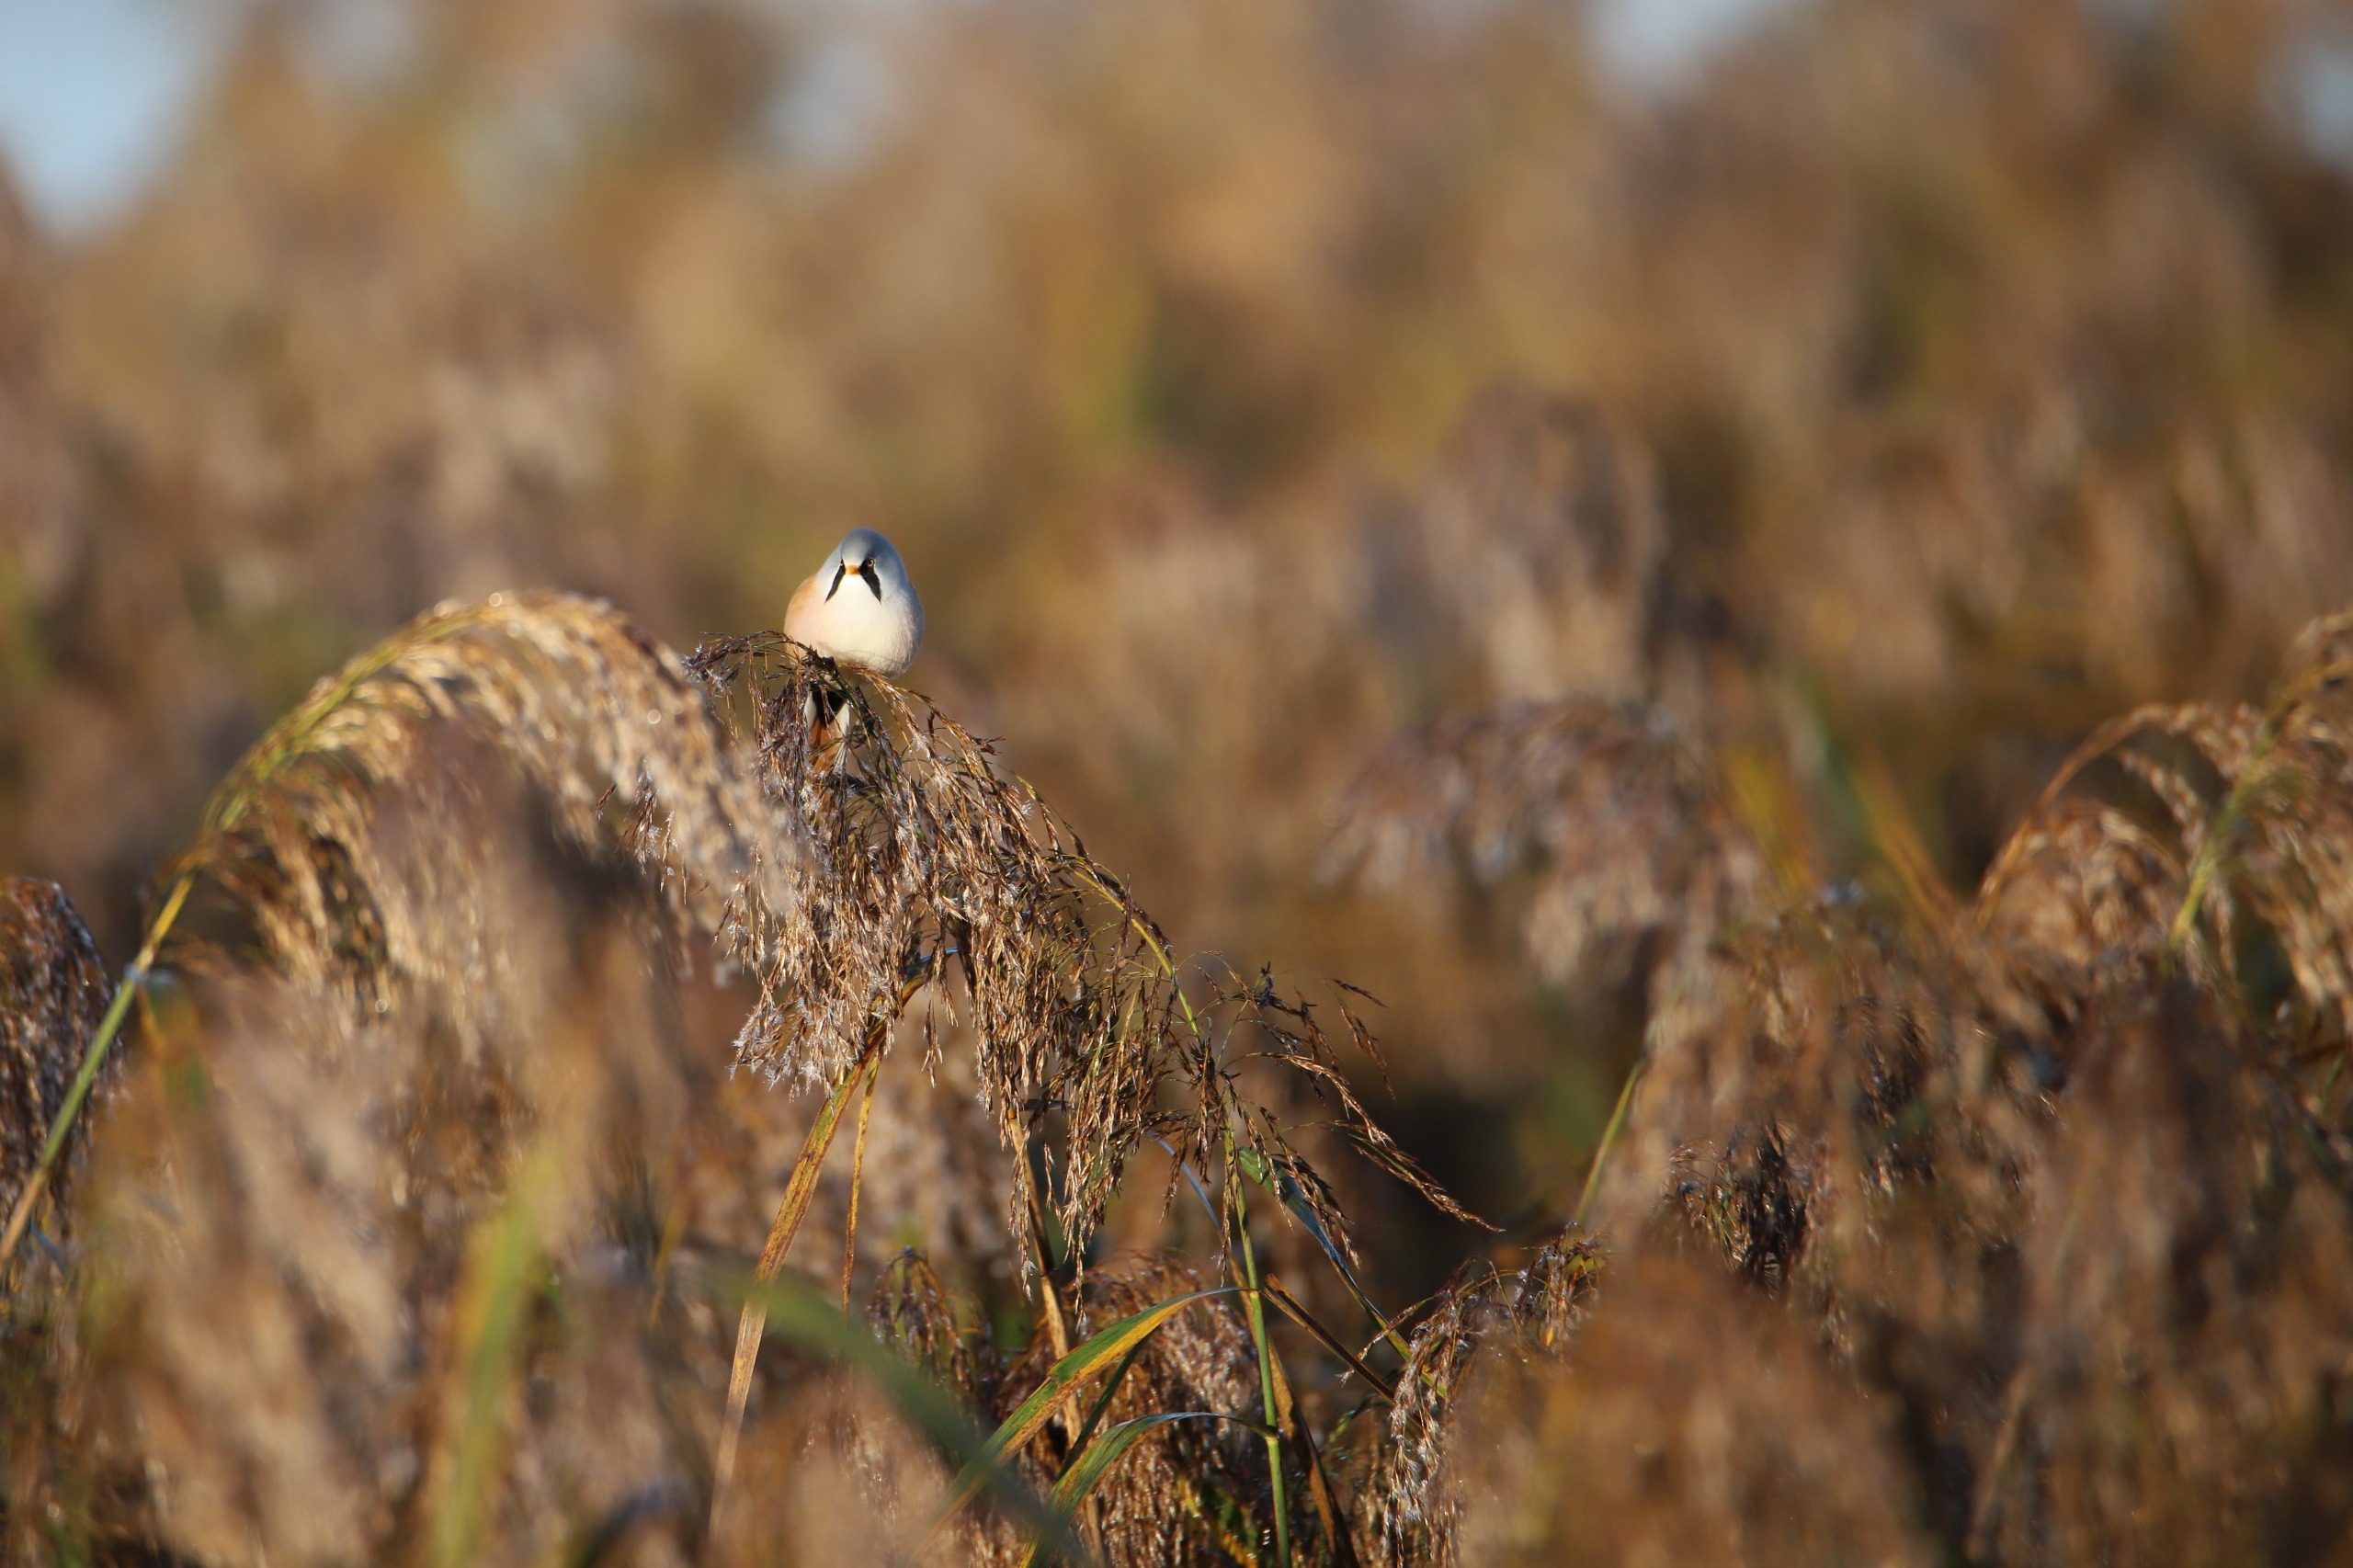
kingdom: Animalia
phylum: Chordata
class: Aves
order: Passeriformes
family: Panuridae
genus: Panurus
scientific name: Panurus biarmicus
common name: Skægmejse
